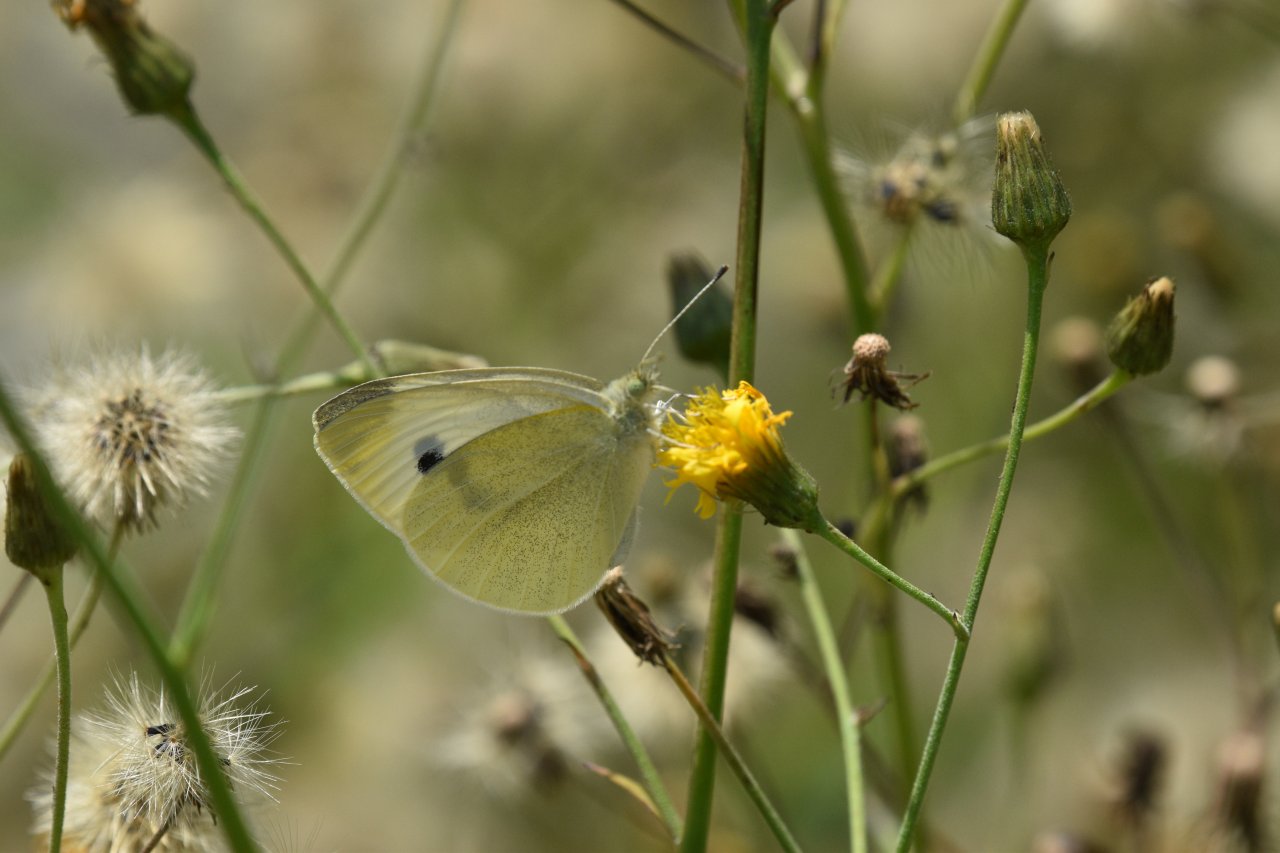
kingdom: Animalia
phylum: Arthropoda
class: Insecta
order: Lepidoptera
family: Pieridae
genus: Pieris
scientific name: Pieris rapae
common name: Cabbage White
